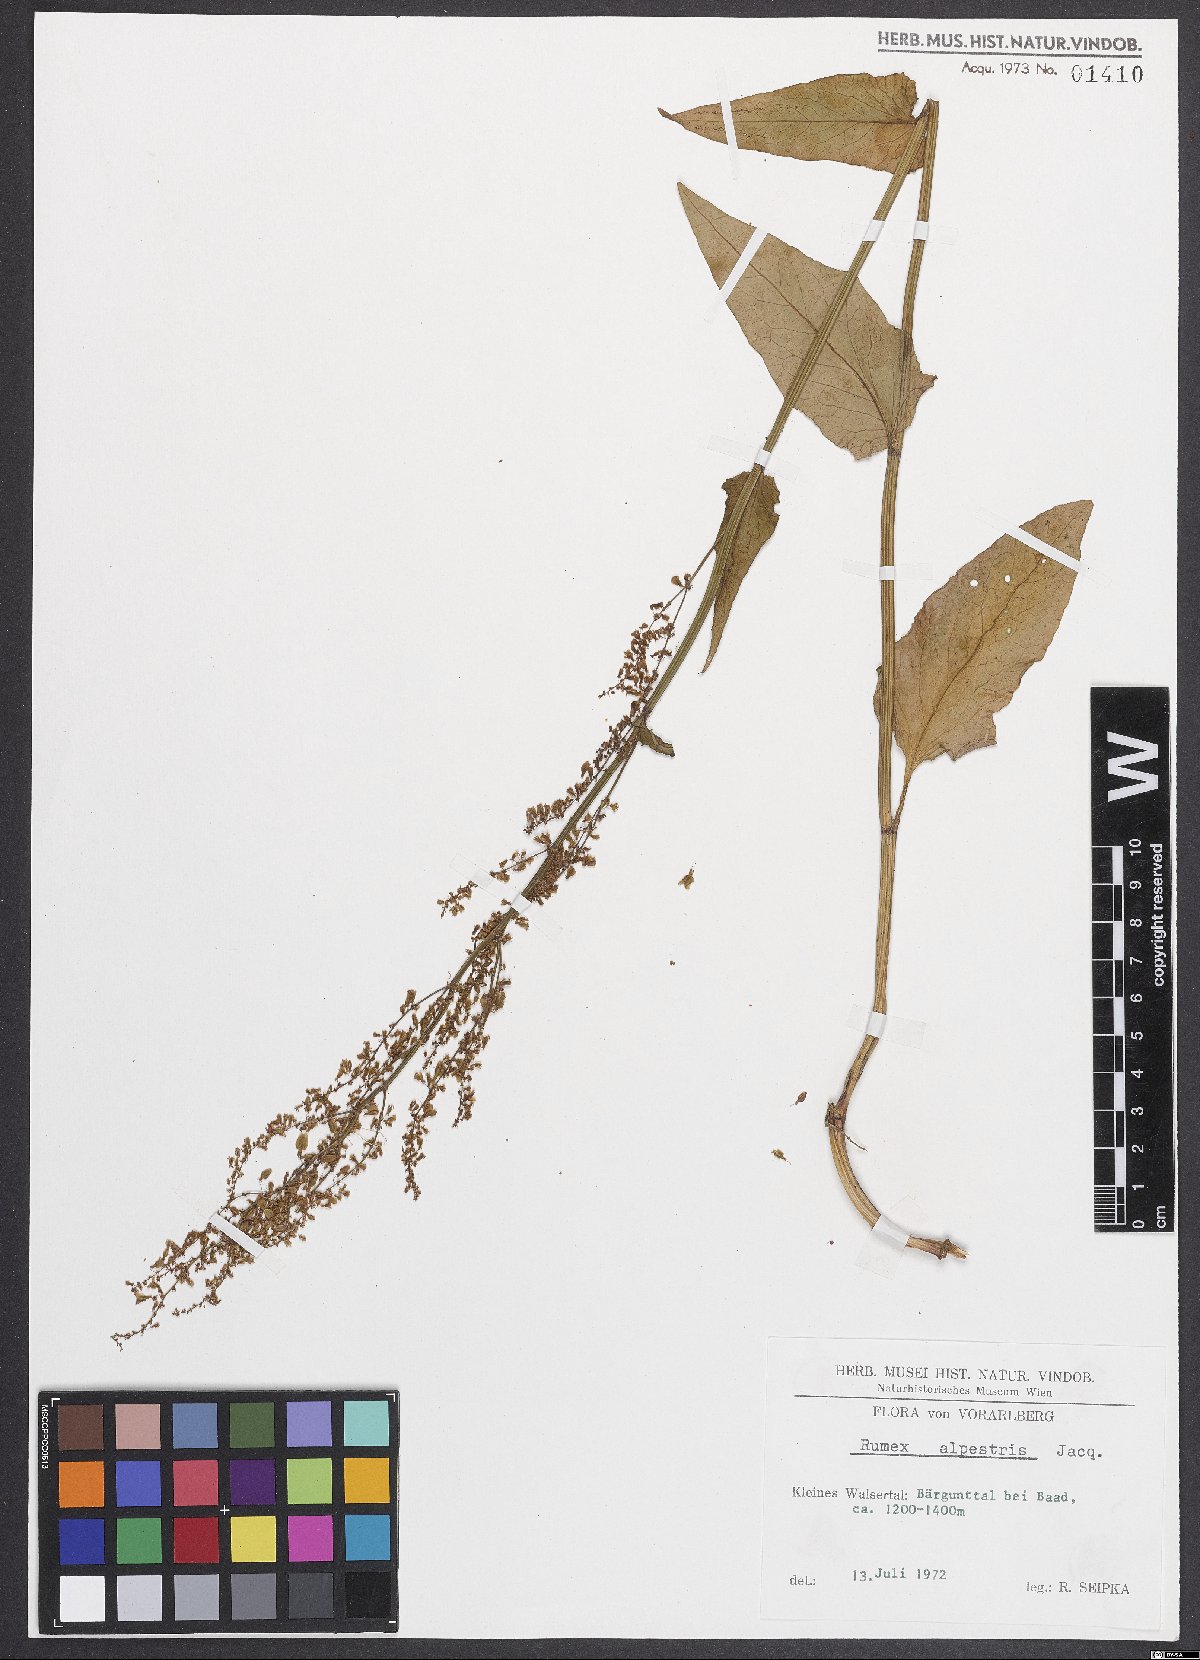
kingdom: Plantae
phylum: Tracheophyta
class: Magnoliopsida
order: Caryophyllales
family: Polygonaceae
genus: Rumex
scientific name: Rumex scutatus
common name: French sorrel
